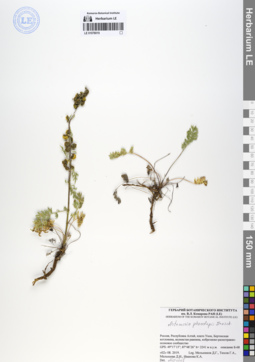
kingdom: Plantae
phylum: Tracheophyta
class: Magnoliopsida
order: Asterales
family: Asteraceae
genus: Artemisia
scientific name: Artemisia phaeolepis
